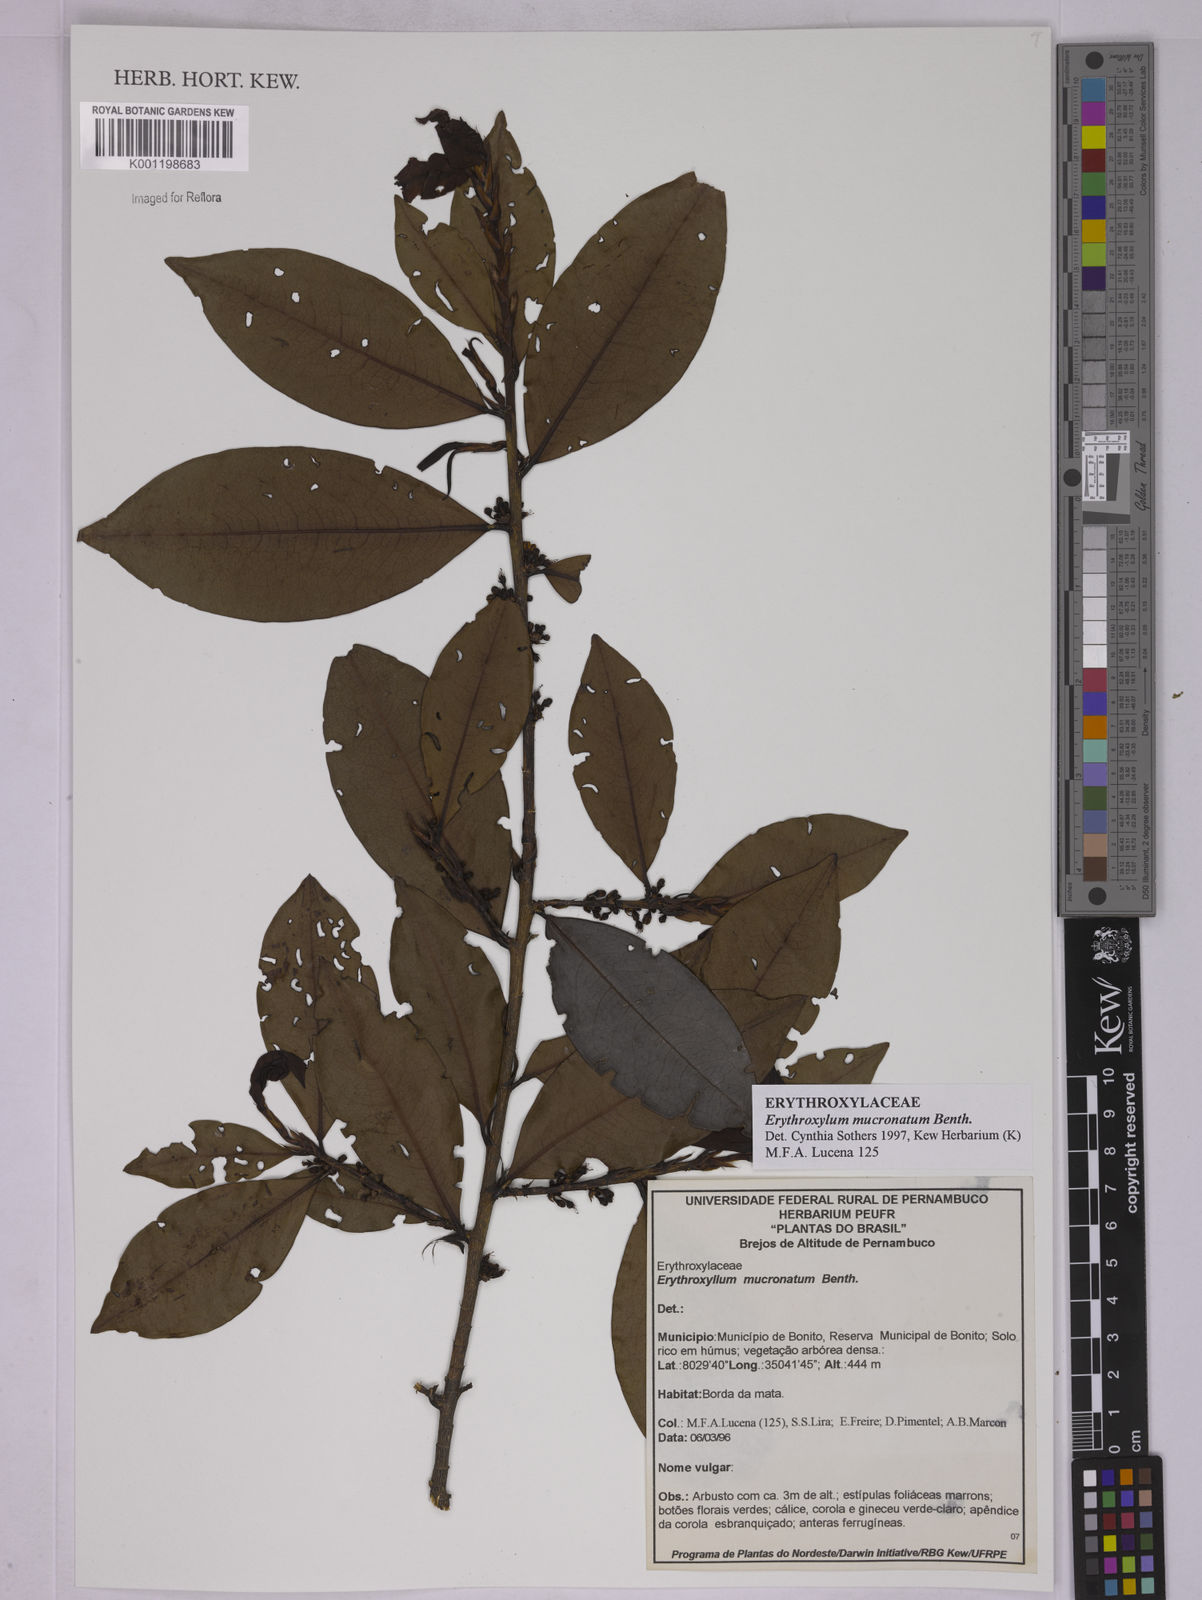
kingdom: Plantae
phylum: Tracheophyta
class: Magnoliopsida
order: Malpighiales
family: Erythroxylaceae
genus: Erythroxylum
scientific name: Erythroxylum mucronatum
